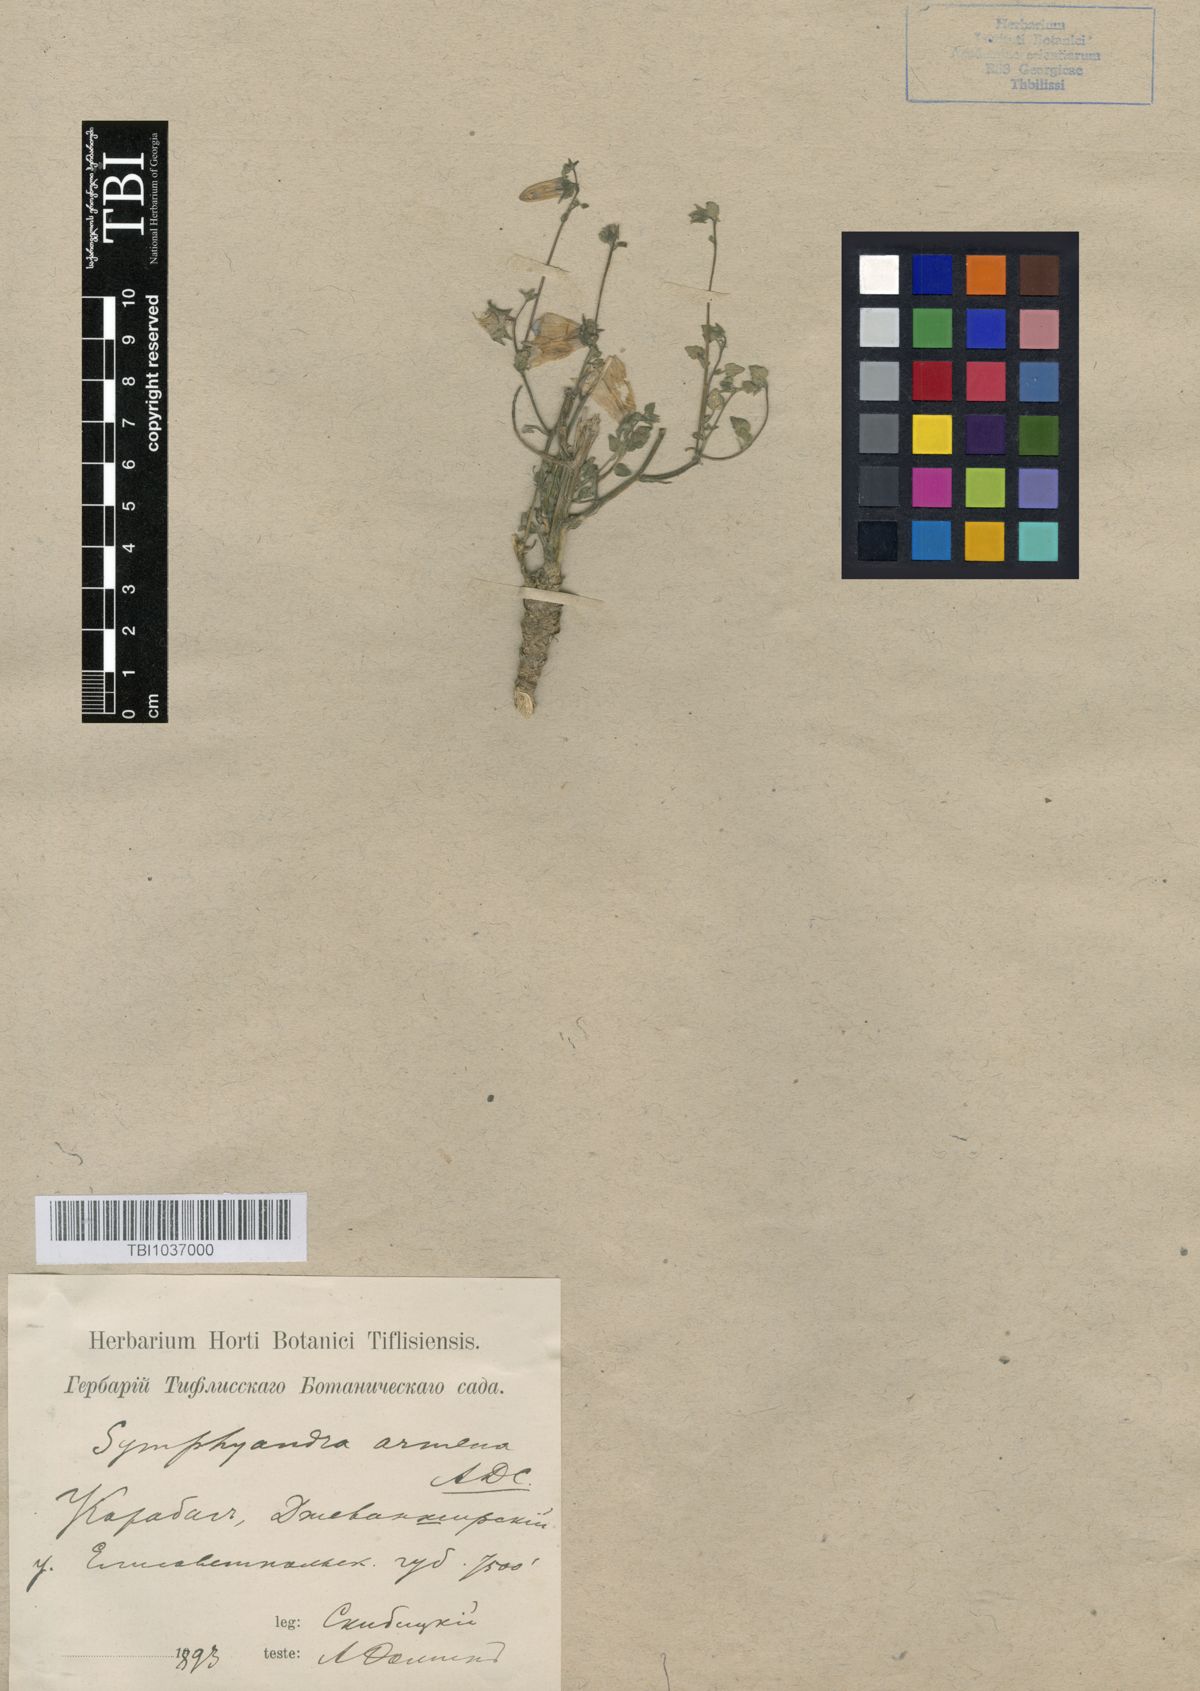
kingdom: Plantae
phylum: Tracheophyta
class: Magnoliopsida
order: Asterales
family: Campanulaceae
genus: Campanula
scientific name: Campanula armena
